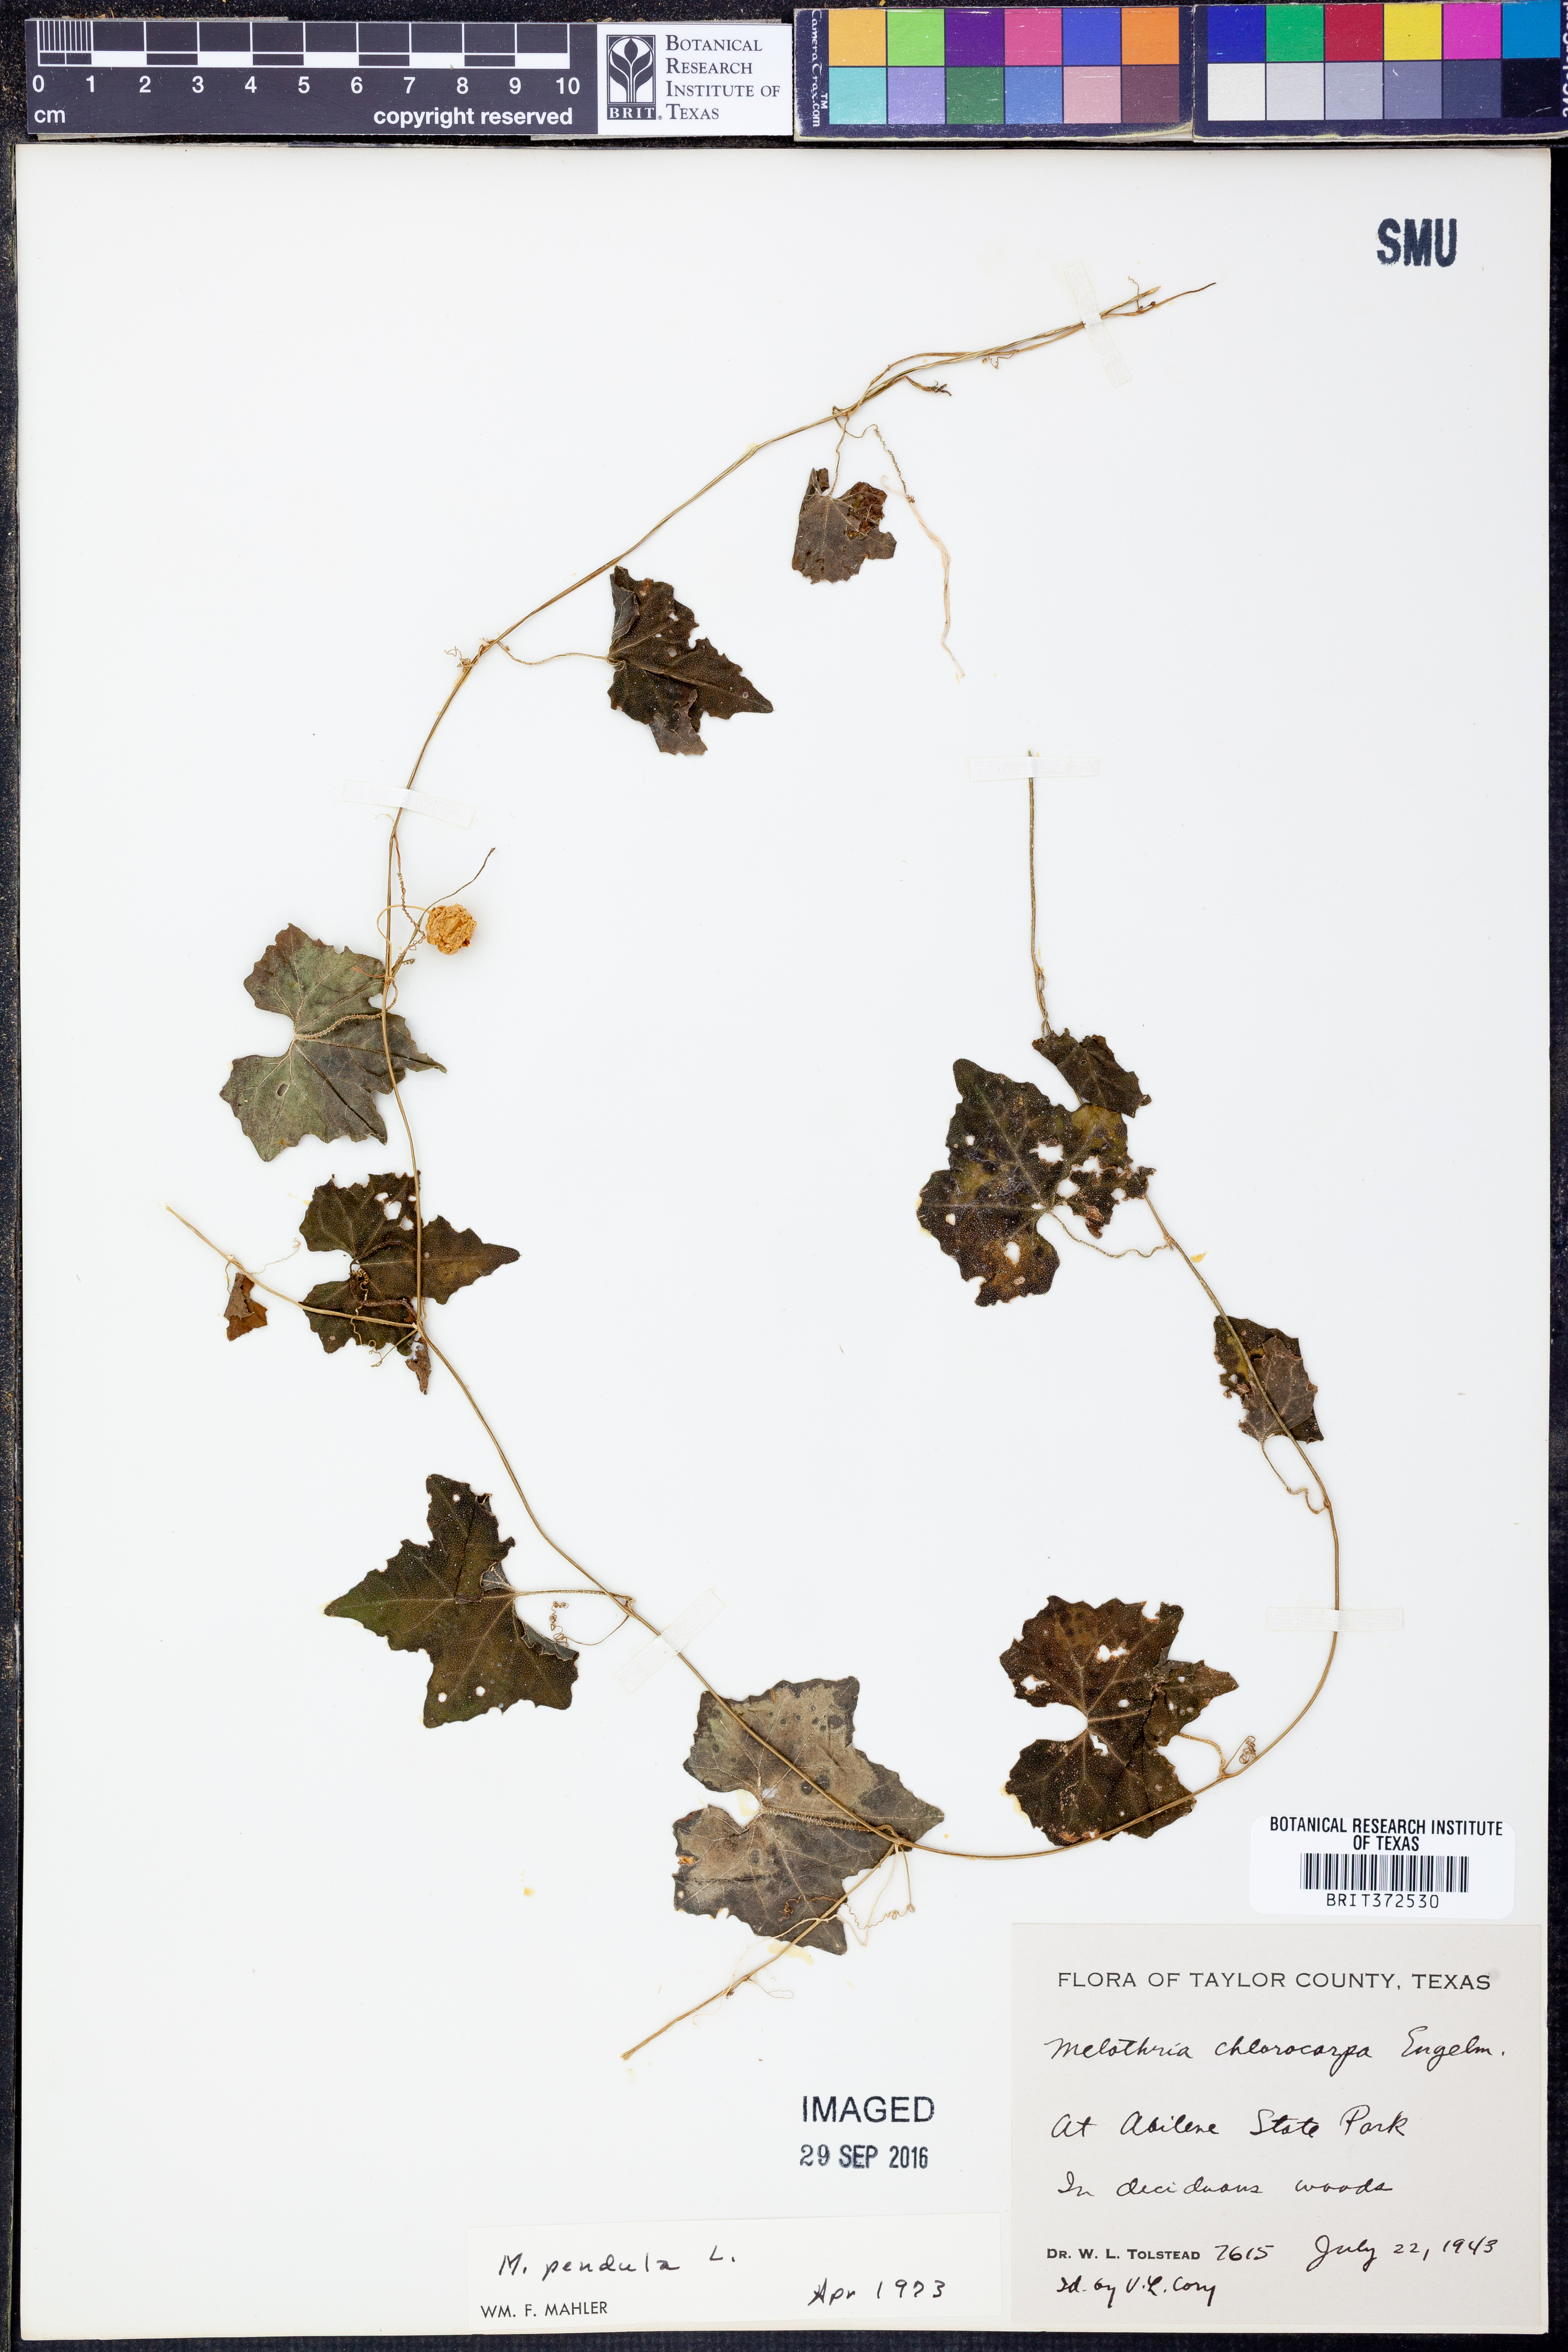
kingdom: Plantae
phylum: Tracheophyta
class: Magnoliopsida
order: Cucurbitales
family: Cucurbitaceae
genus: Melothria
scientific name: Melothria pendula
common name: Creeping-cucumber
